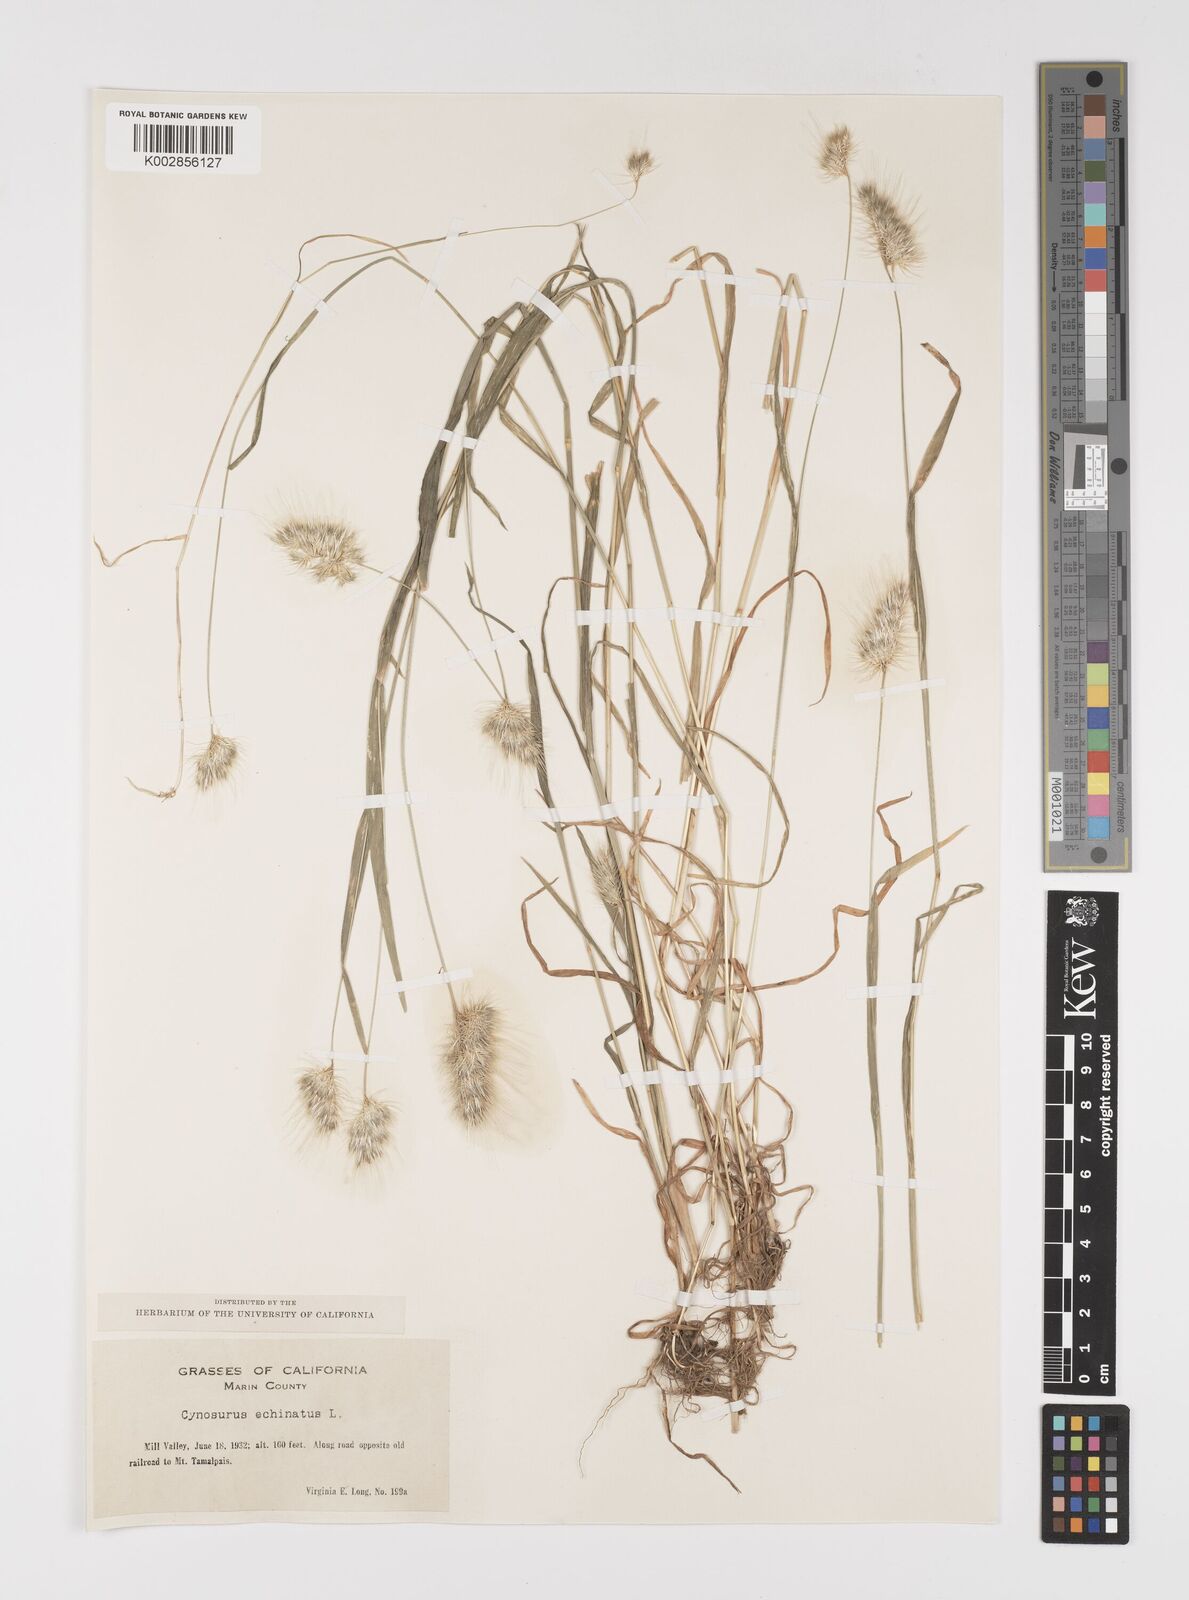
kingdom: Plantae
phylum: Tracheophyta
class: Liliopsida
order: Poales
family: Poaceae
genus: Cynosurus
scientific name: Cynosurus echinatus
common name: Rough dog's-tail
